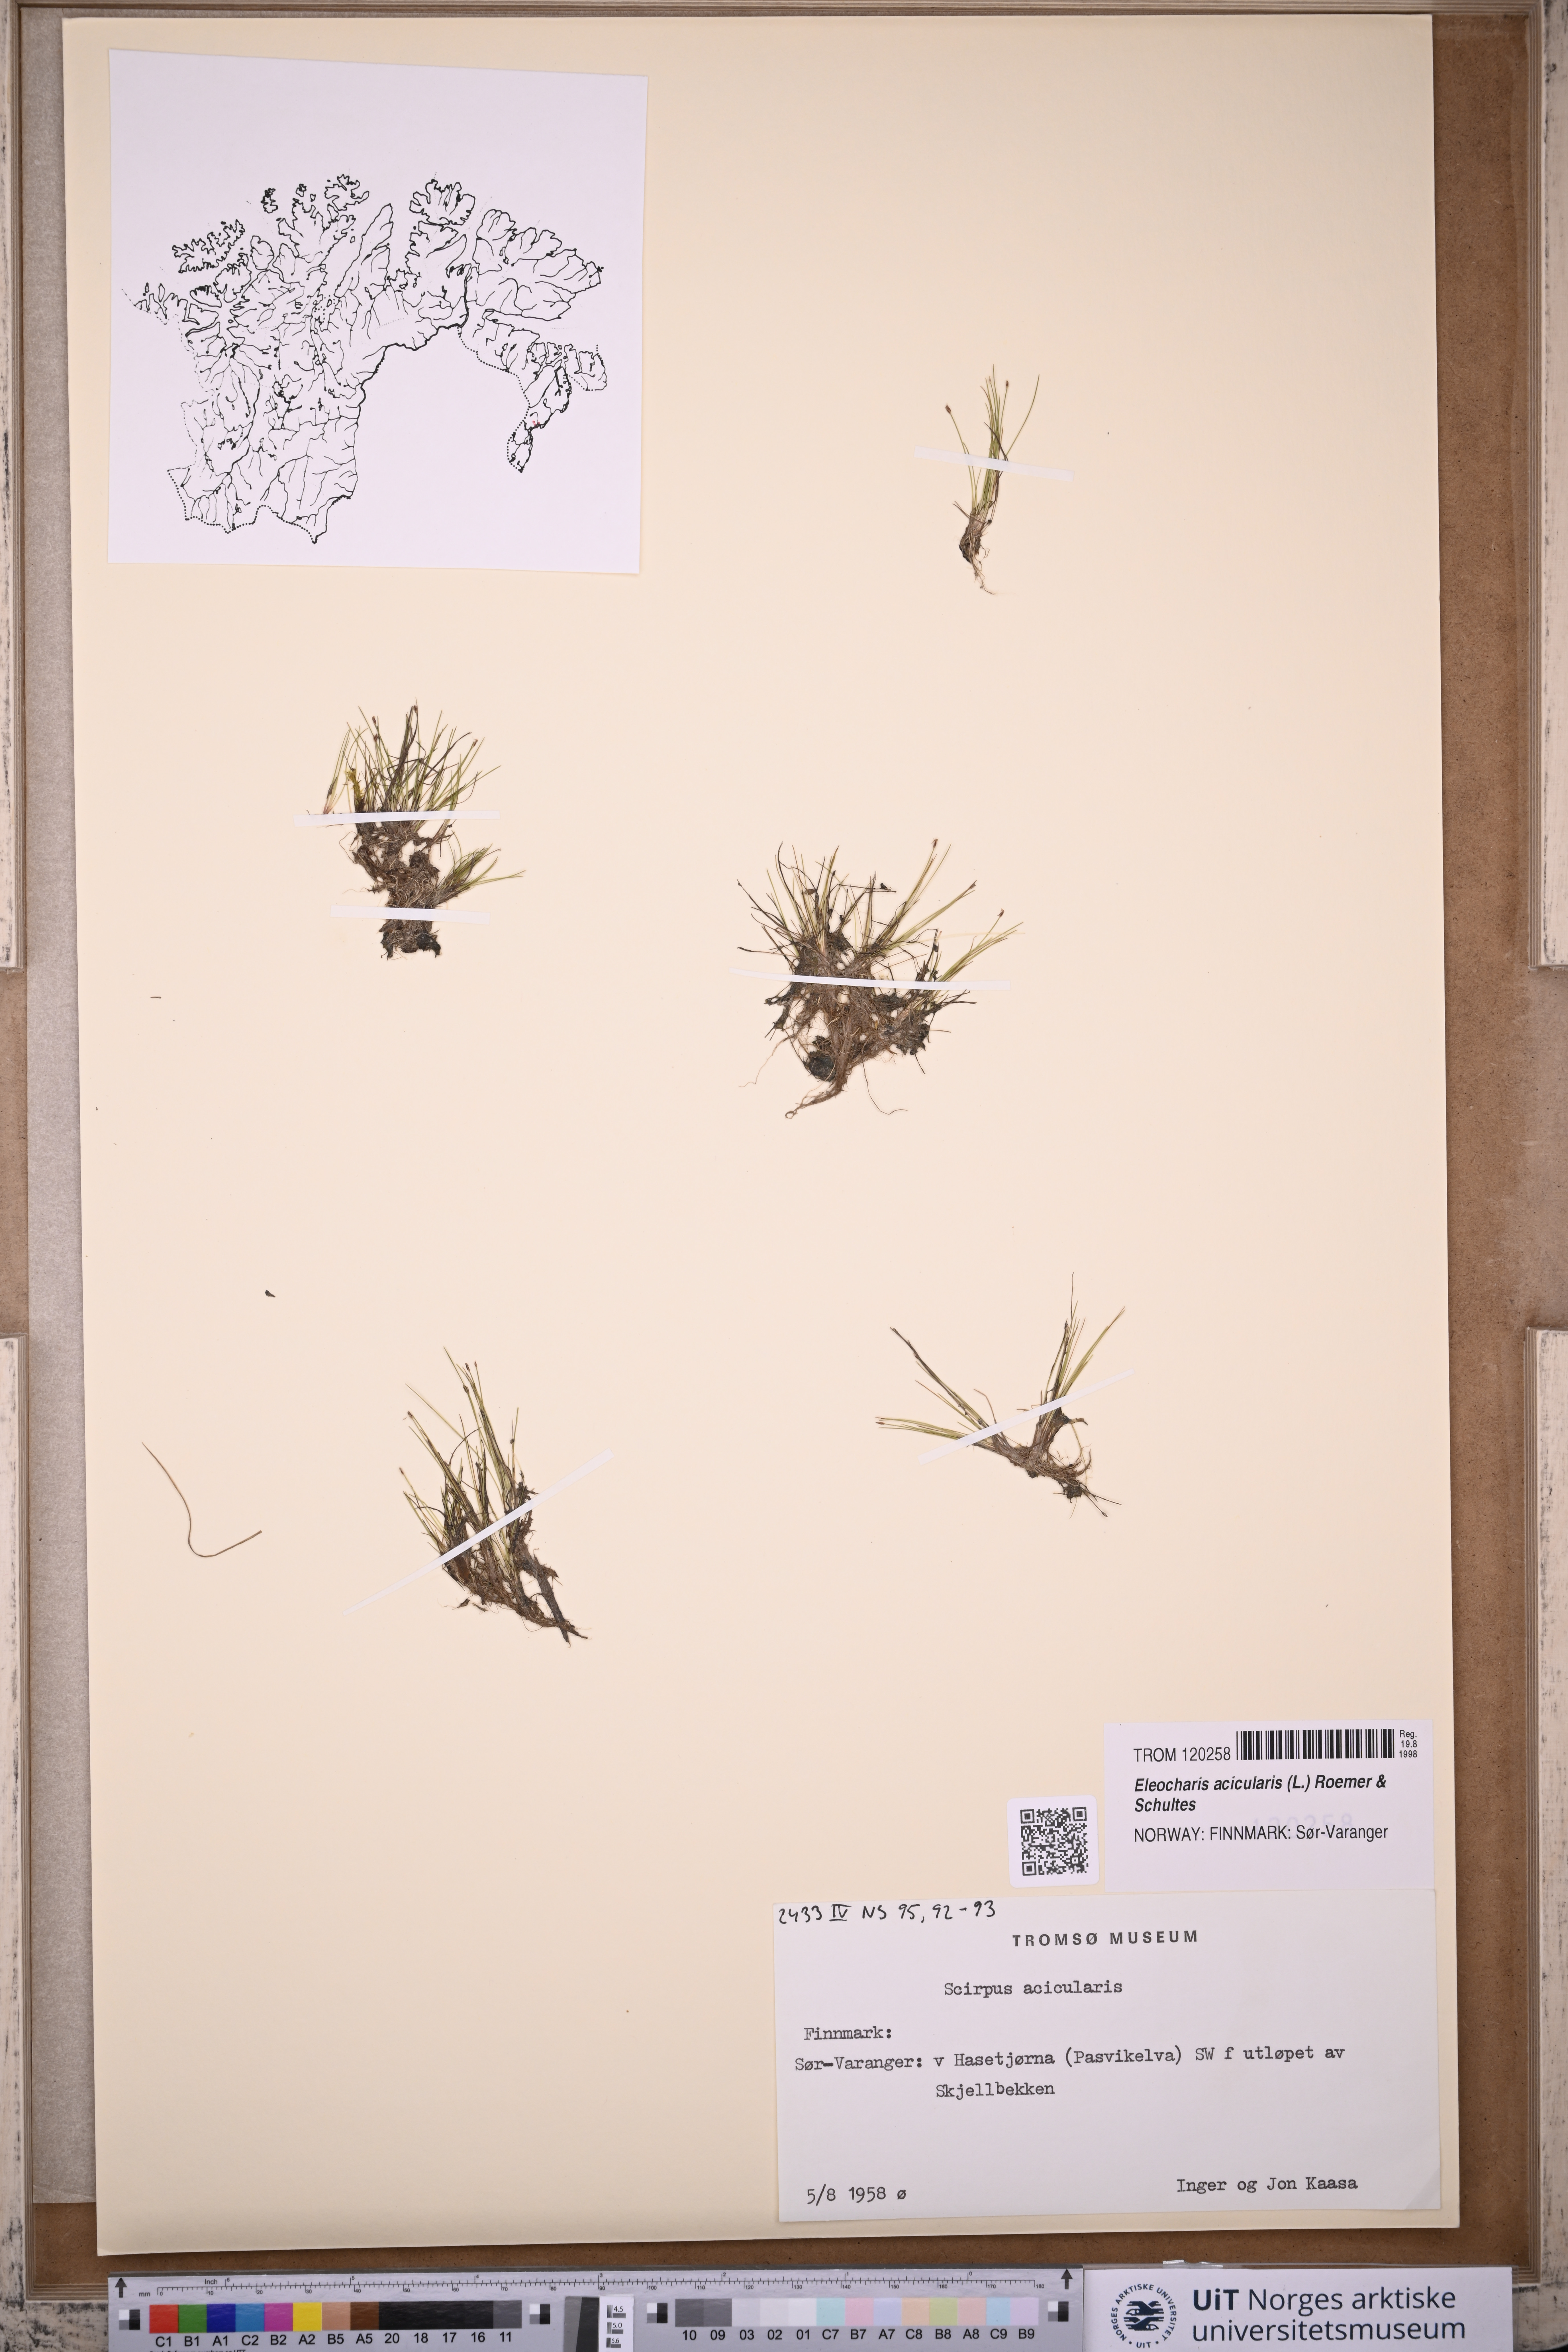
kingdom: Plantae
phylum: Tracheophyta
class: Liliopsida
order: Poales
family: Cyperaceae
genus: Eleocharis
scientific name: Eleocharis acicularis
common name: Needle spike-rush
